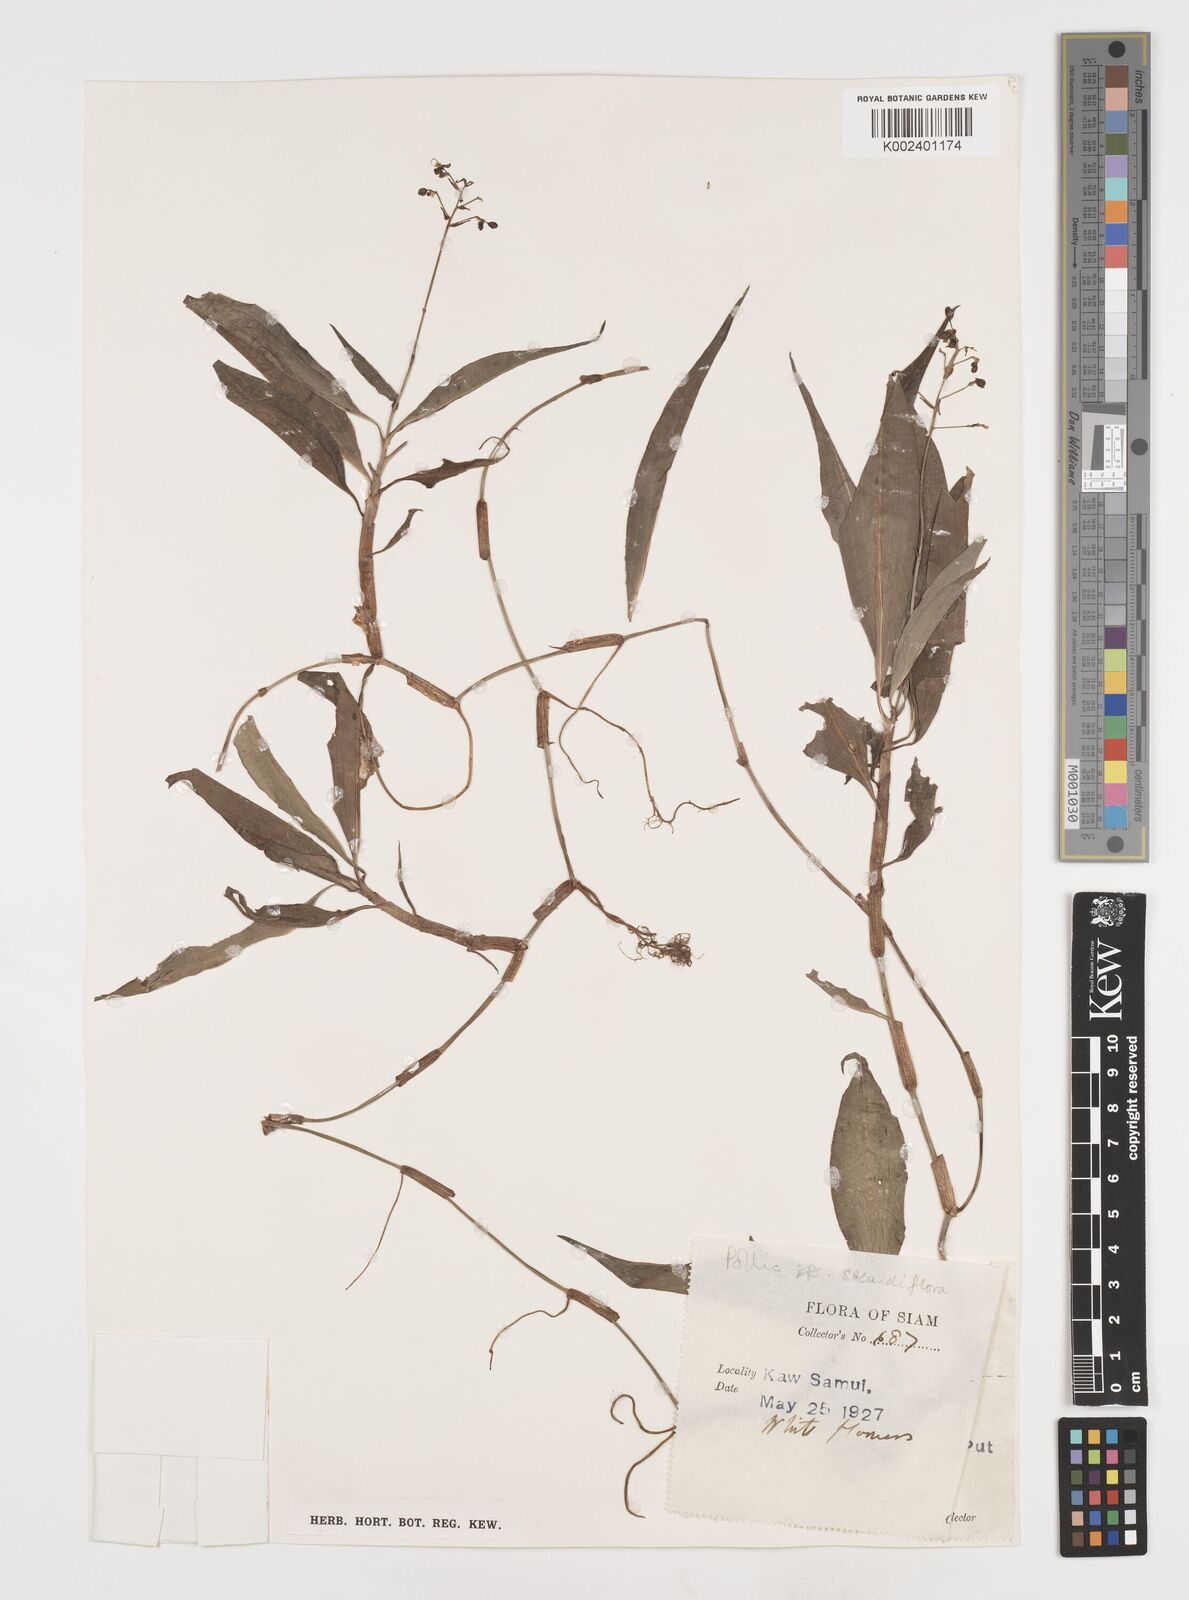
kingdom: Plantae
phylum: Tracheophyta
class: Liliopsida
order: Commelinales
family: Commelinaceae
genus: Pollia
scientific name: Pollia secundiflora
